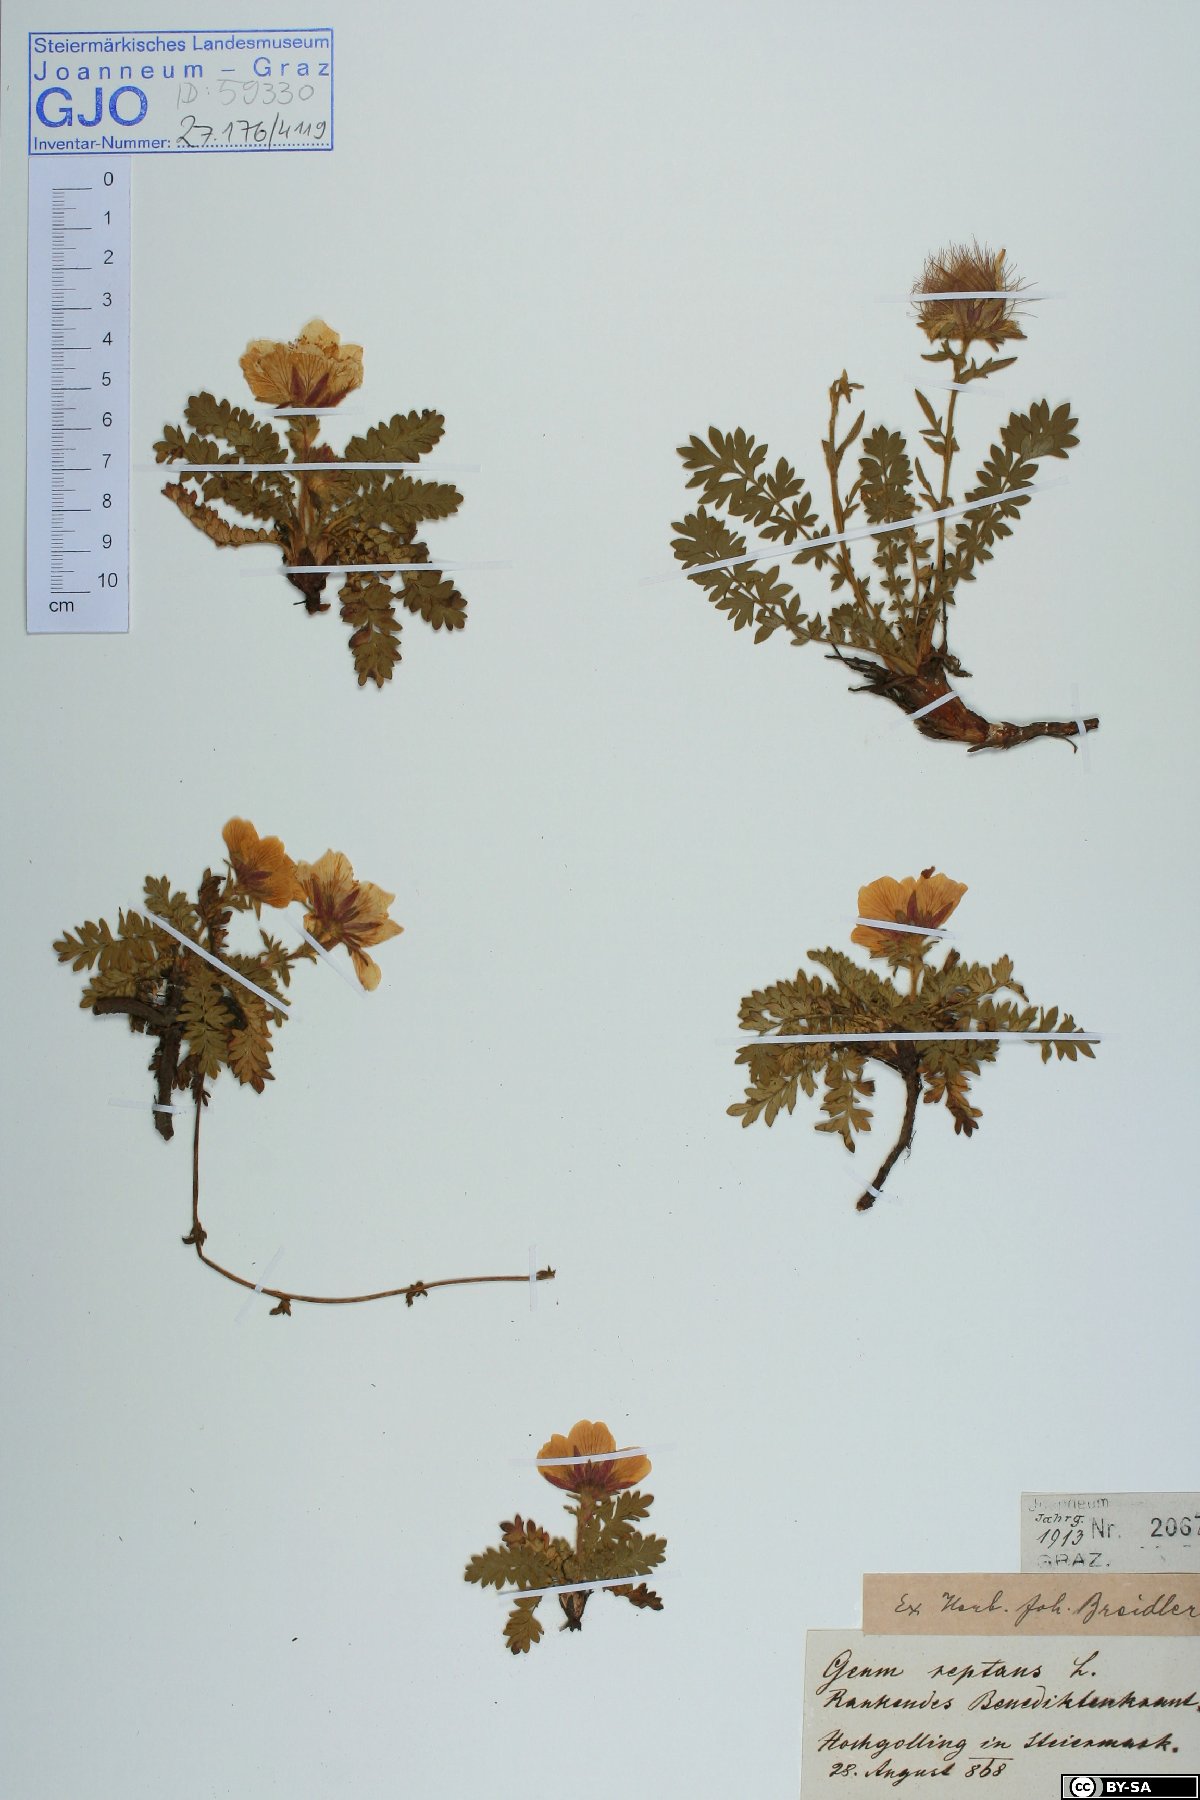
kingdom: Plantae
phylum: Tracheophyta
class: Magnoliopsida
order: Rosales
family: Rosaceae
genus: Geum
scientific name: Geum reptans
